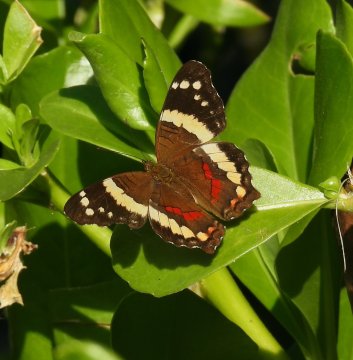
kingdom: Animalia
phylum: Arthropoda
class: Insecta
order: Lepidoptera
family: Nymphalidae
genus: Anartia
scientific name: Anartia fatima
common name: Banded Peacock
